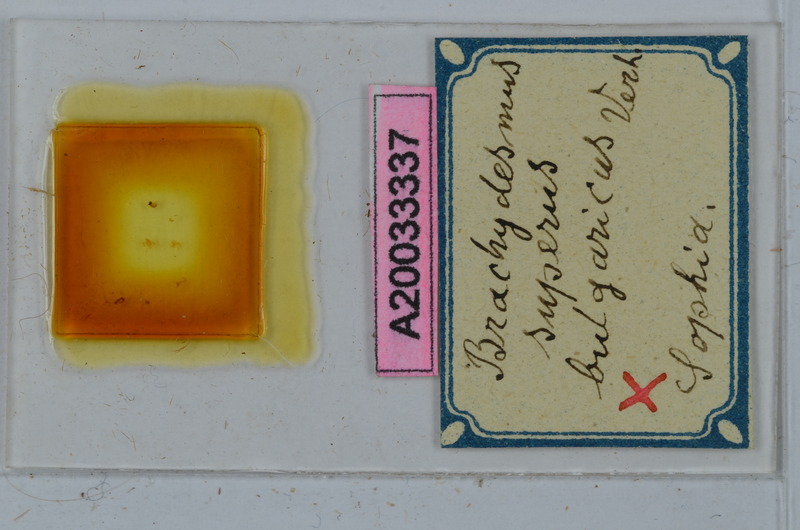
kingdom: Animalia
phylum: Arthropoda
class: Diplopoda
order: Polydesmida
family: Polydesmidae
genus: Brachydesmus
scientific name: Brachydesmus superus
